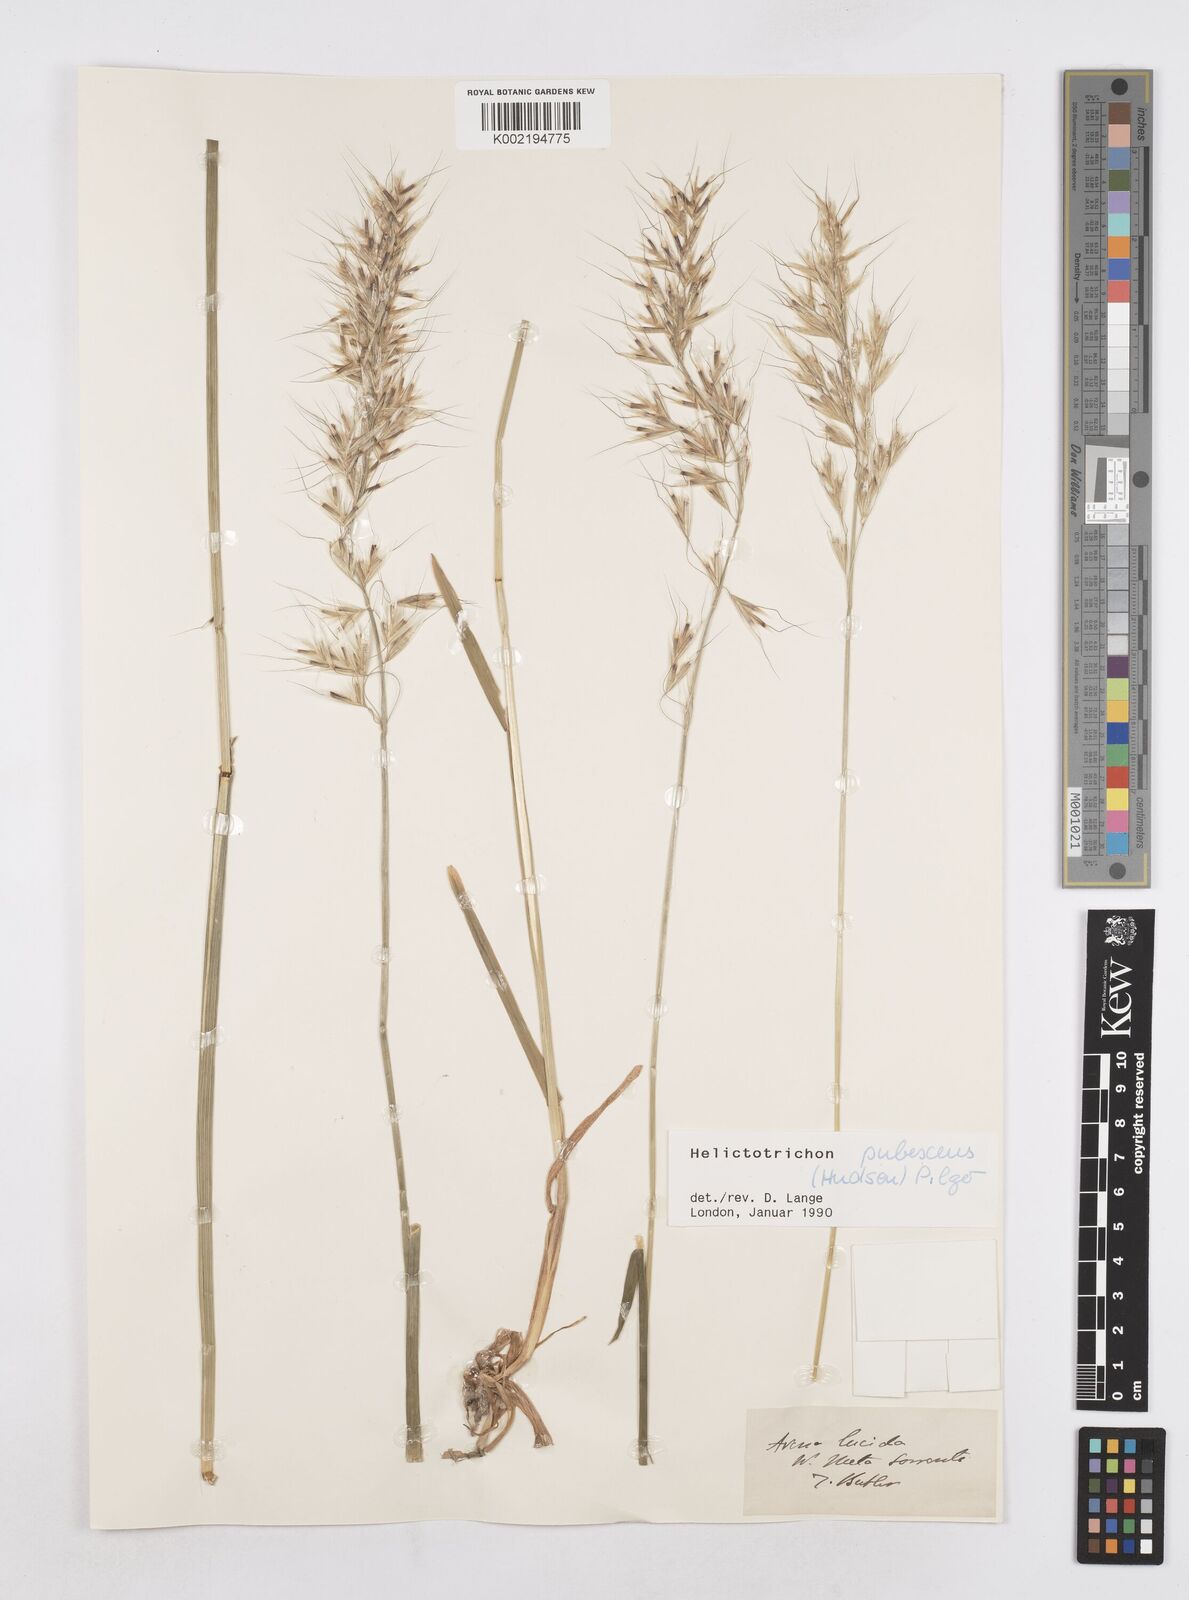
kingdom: Plantae
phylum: Tracheophyta
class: Liliopsida
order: Poales
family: Poaceae
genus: Avenula
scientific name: Avenula pubescens
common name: Downy alpine oatgrass
